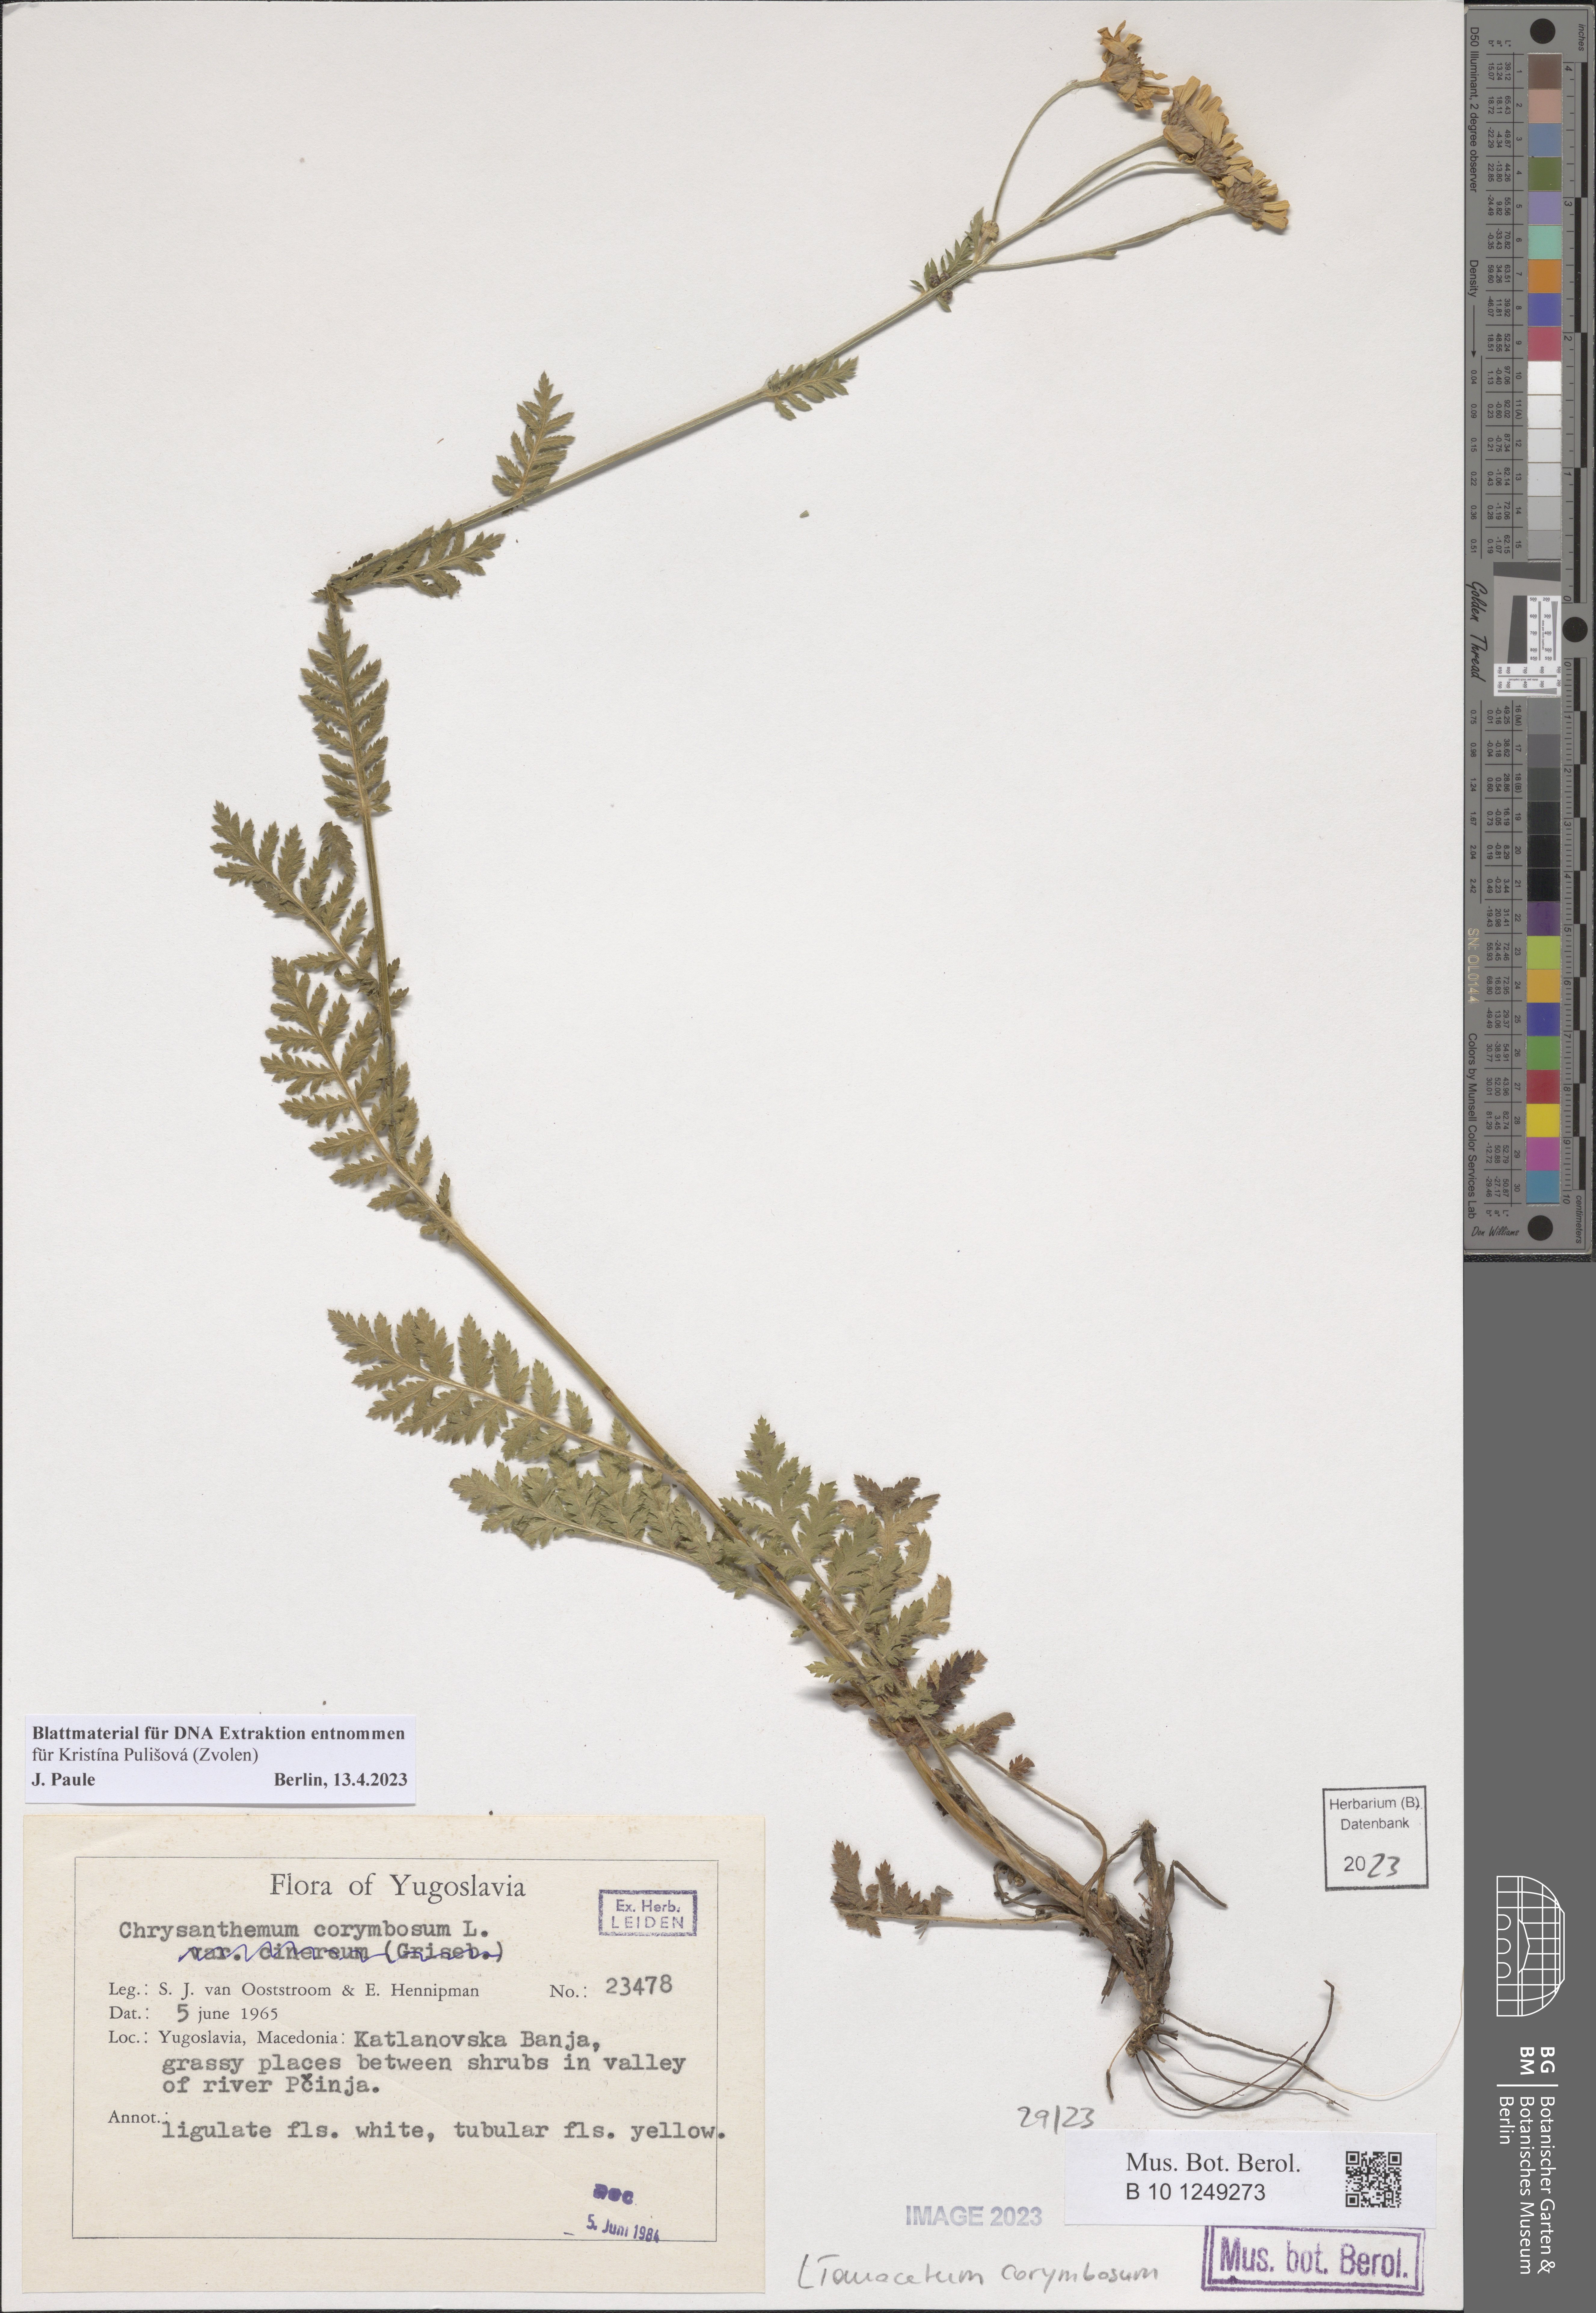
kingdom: Plantae
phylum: Tracheophyta
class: Magnoliopsida
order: Asterales
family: Asteraceae
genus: Tanacetum
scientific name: Tanacetum corymbosum
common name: Scentless feverfew
